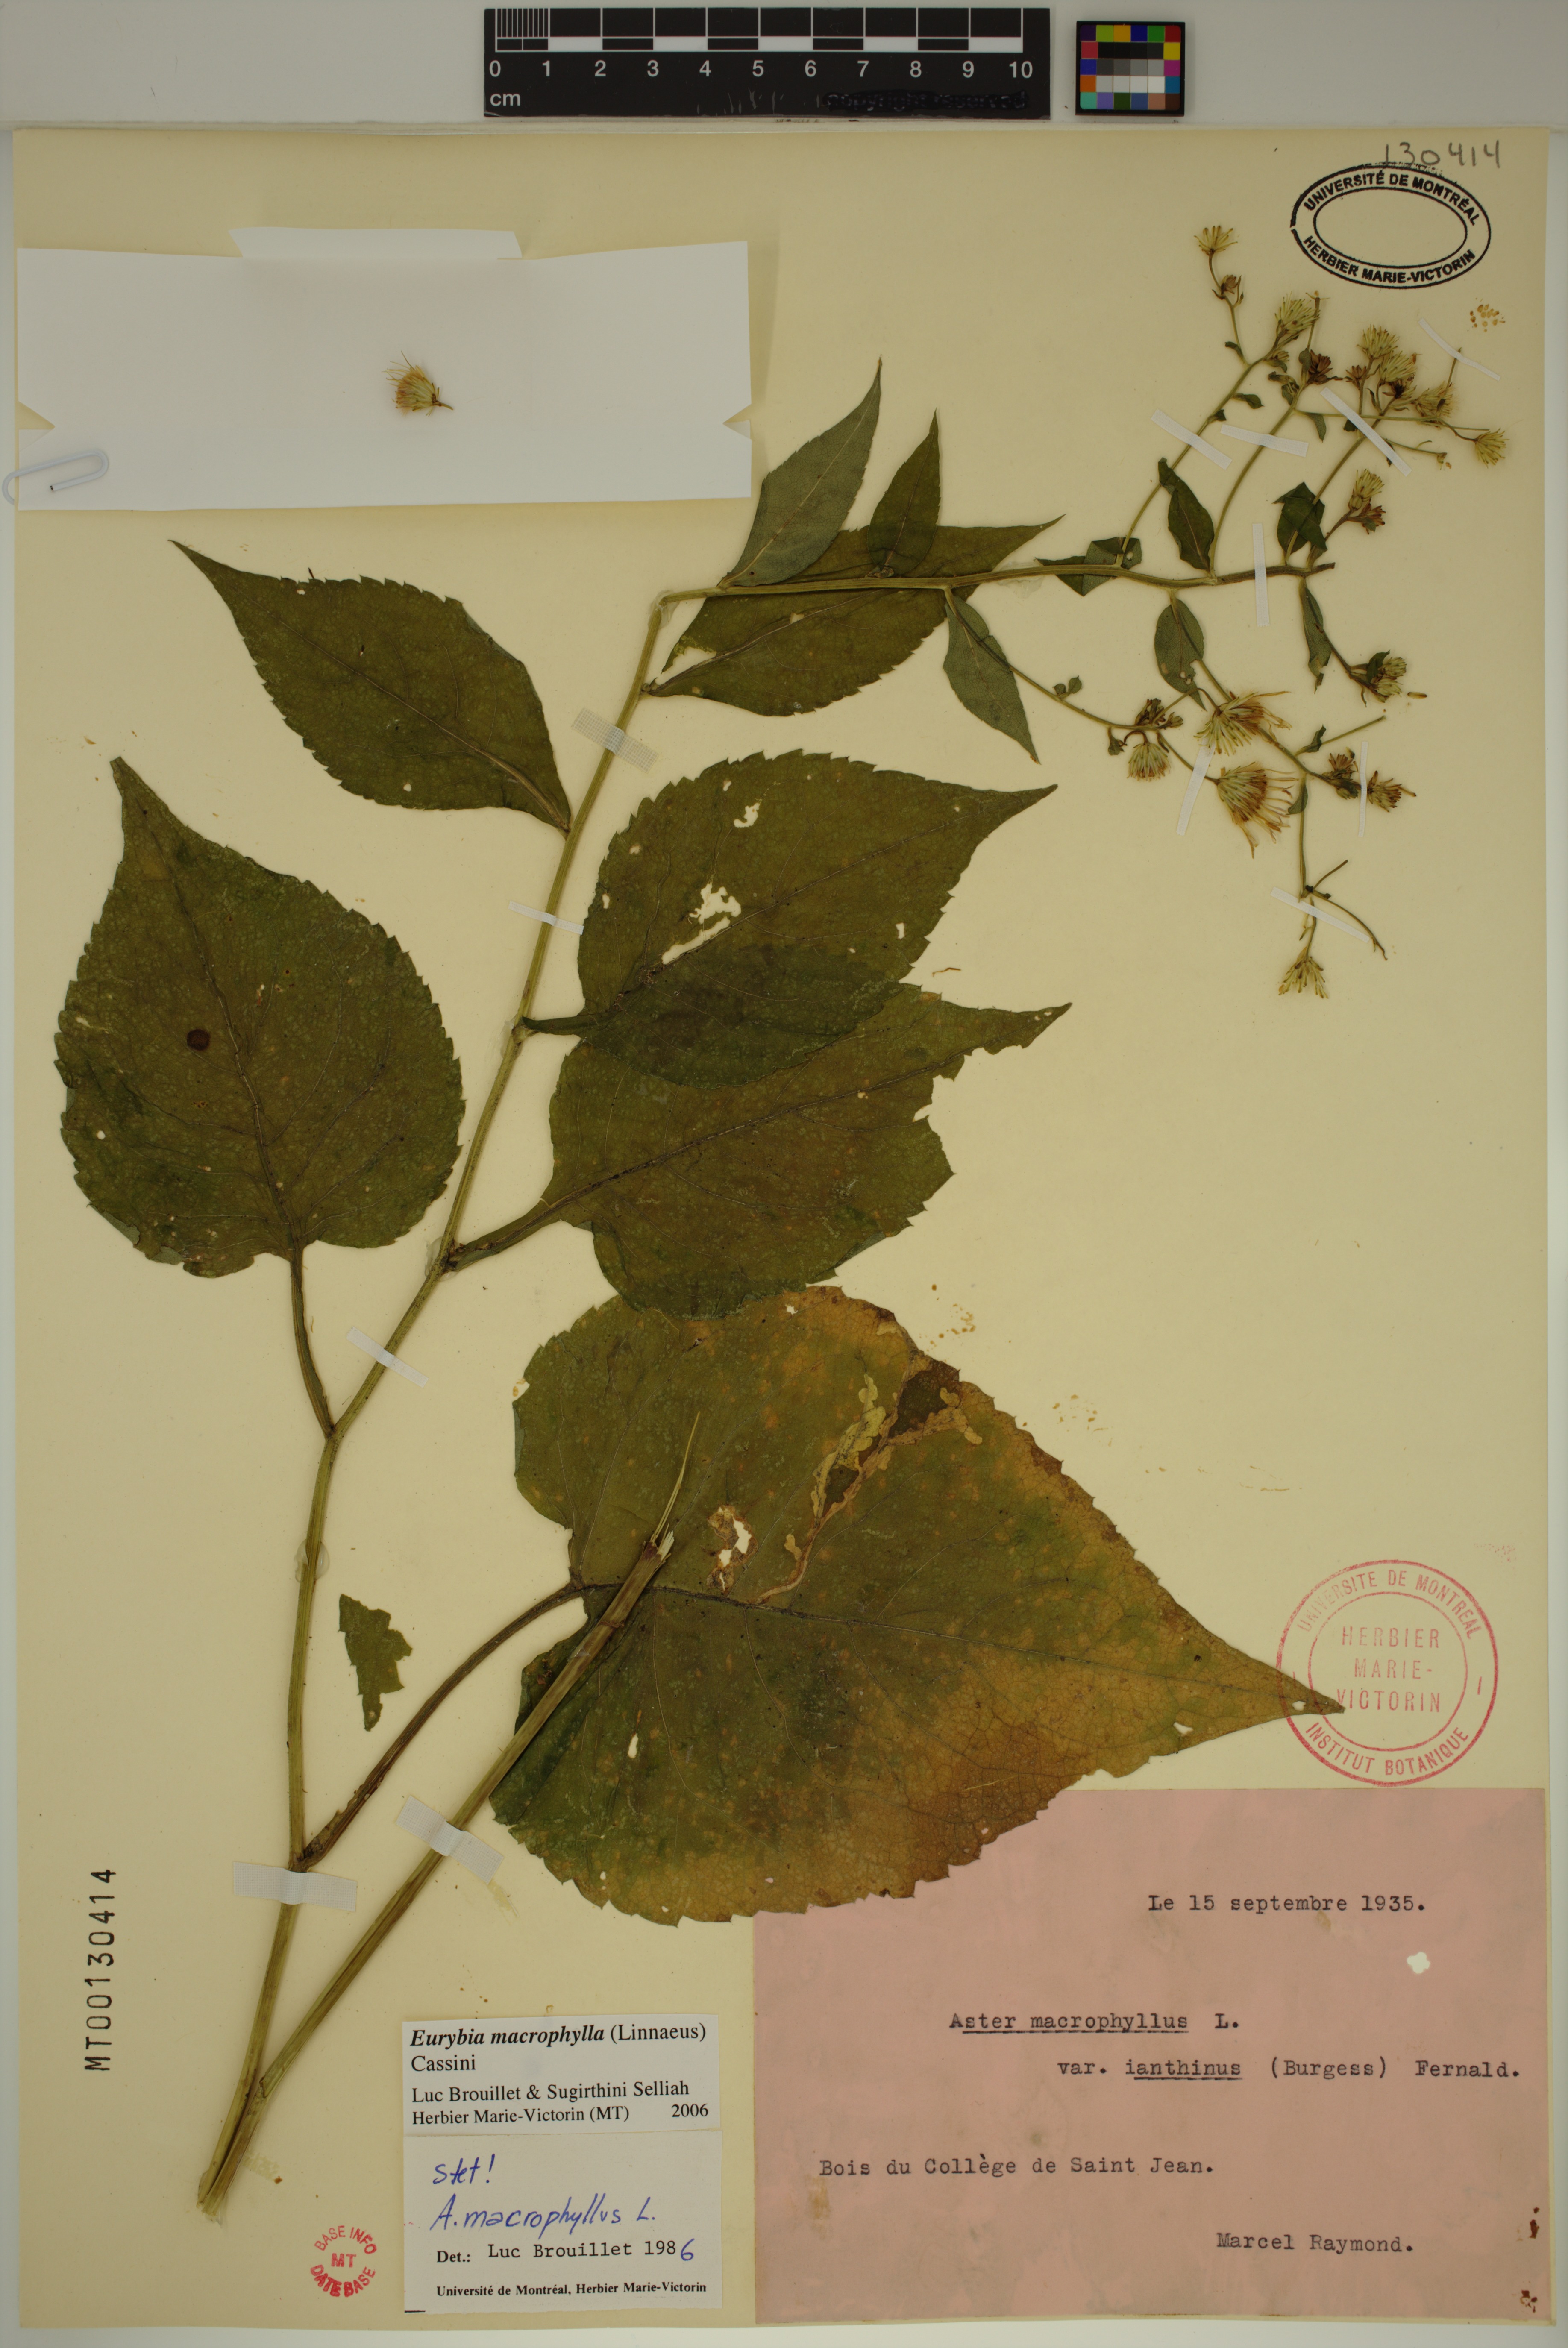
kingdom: Plantae
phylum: Tracheophyta
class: Magnoliopsida
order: Asterales
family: Asteraceae
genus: Eurybia
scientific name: Eurybia macrophylla
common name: Big-leaved aster
